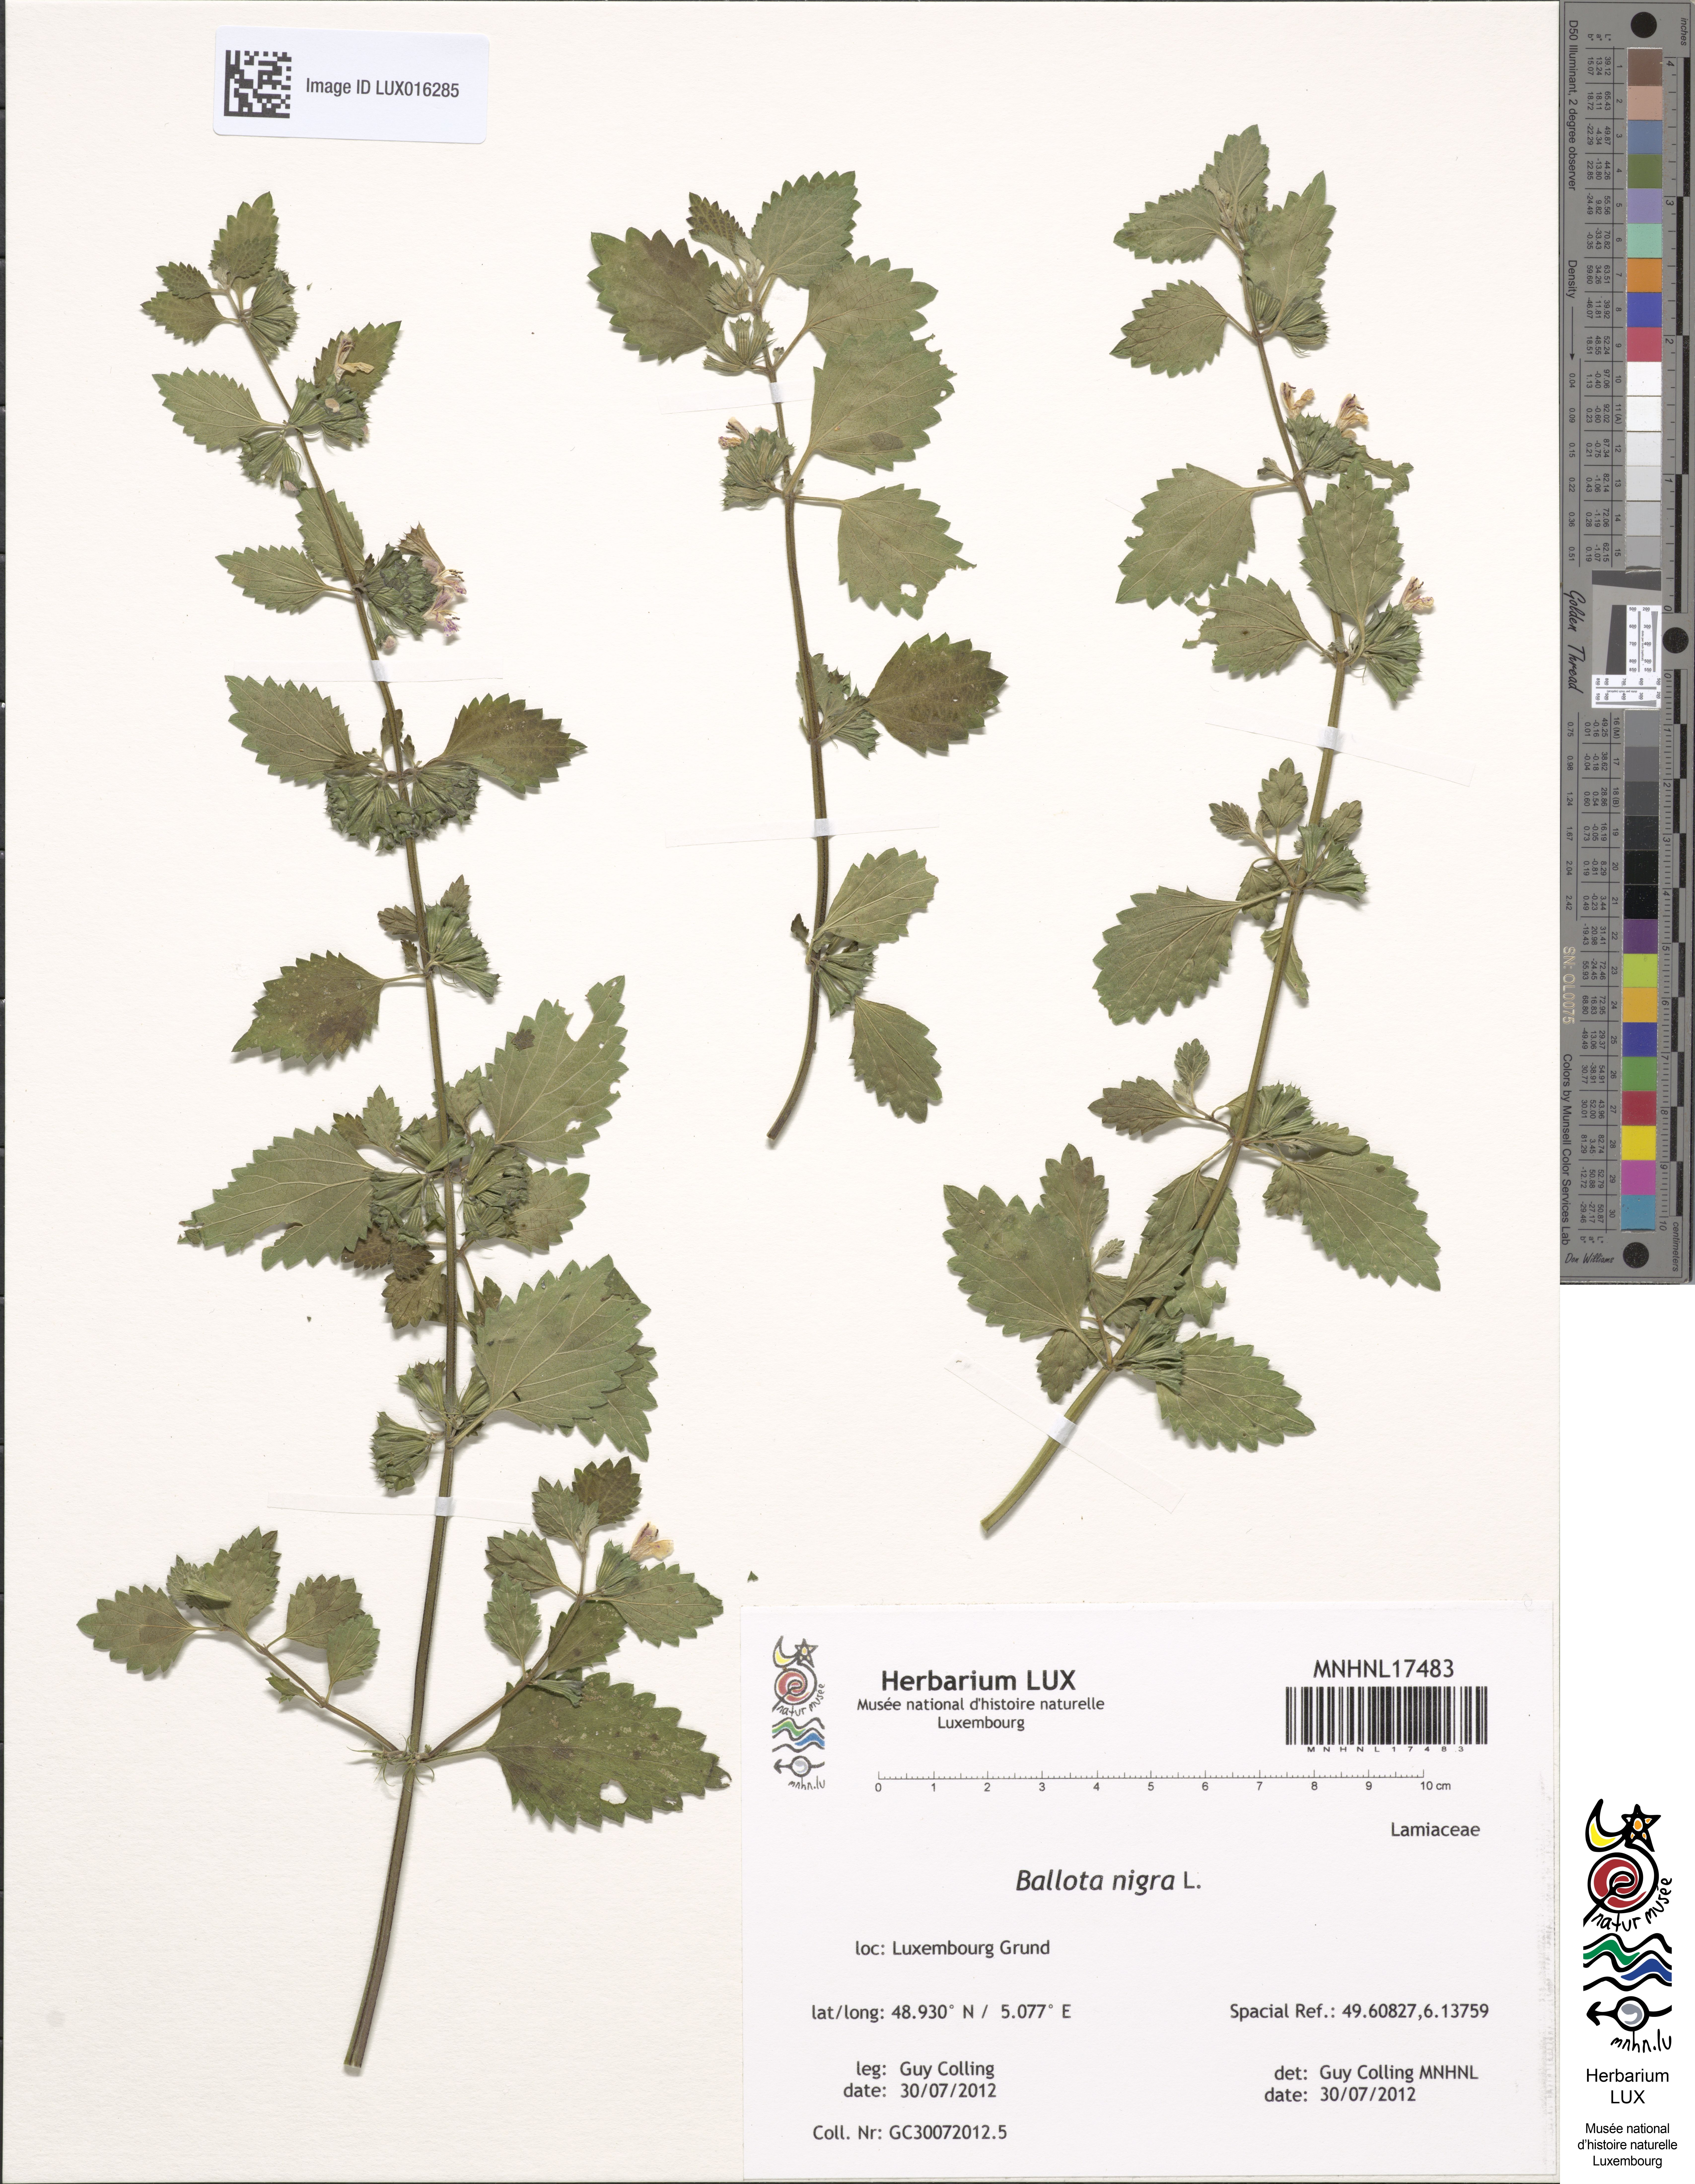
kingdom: Plantae
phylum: Tracheophyta
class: Magnoliopsida
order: Lamiales
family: Lamiaceae
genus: Ballota
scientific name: Ballota nigra
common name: Black horehound
